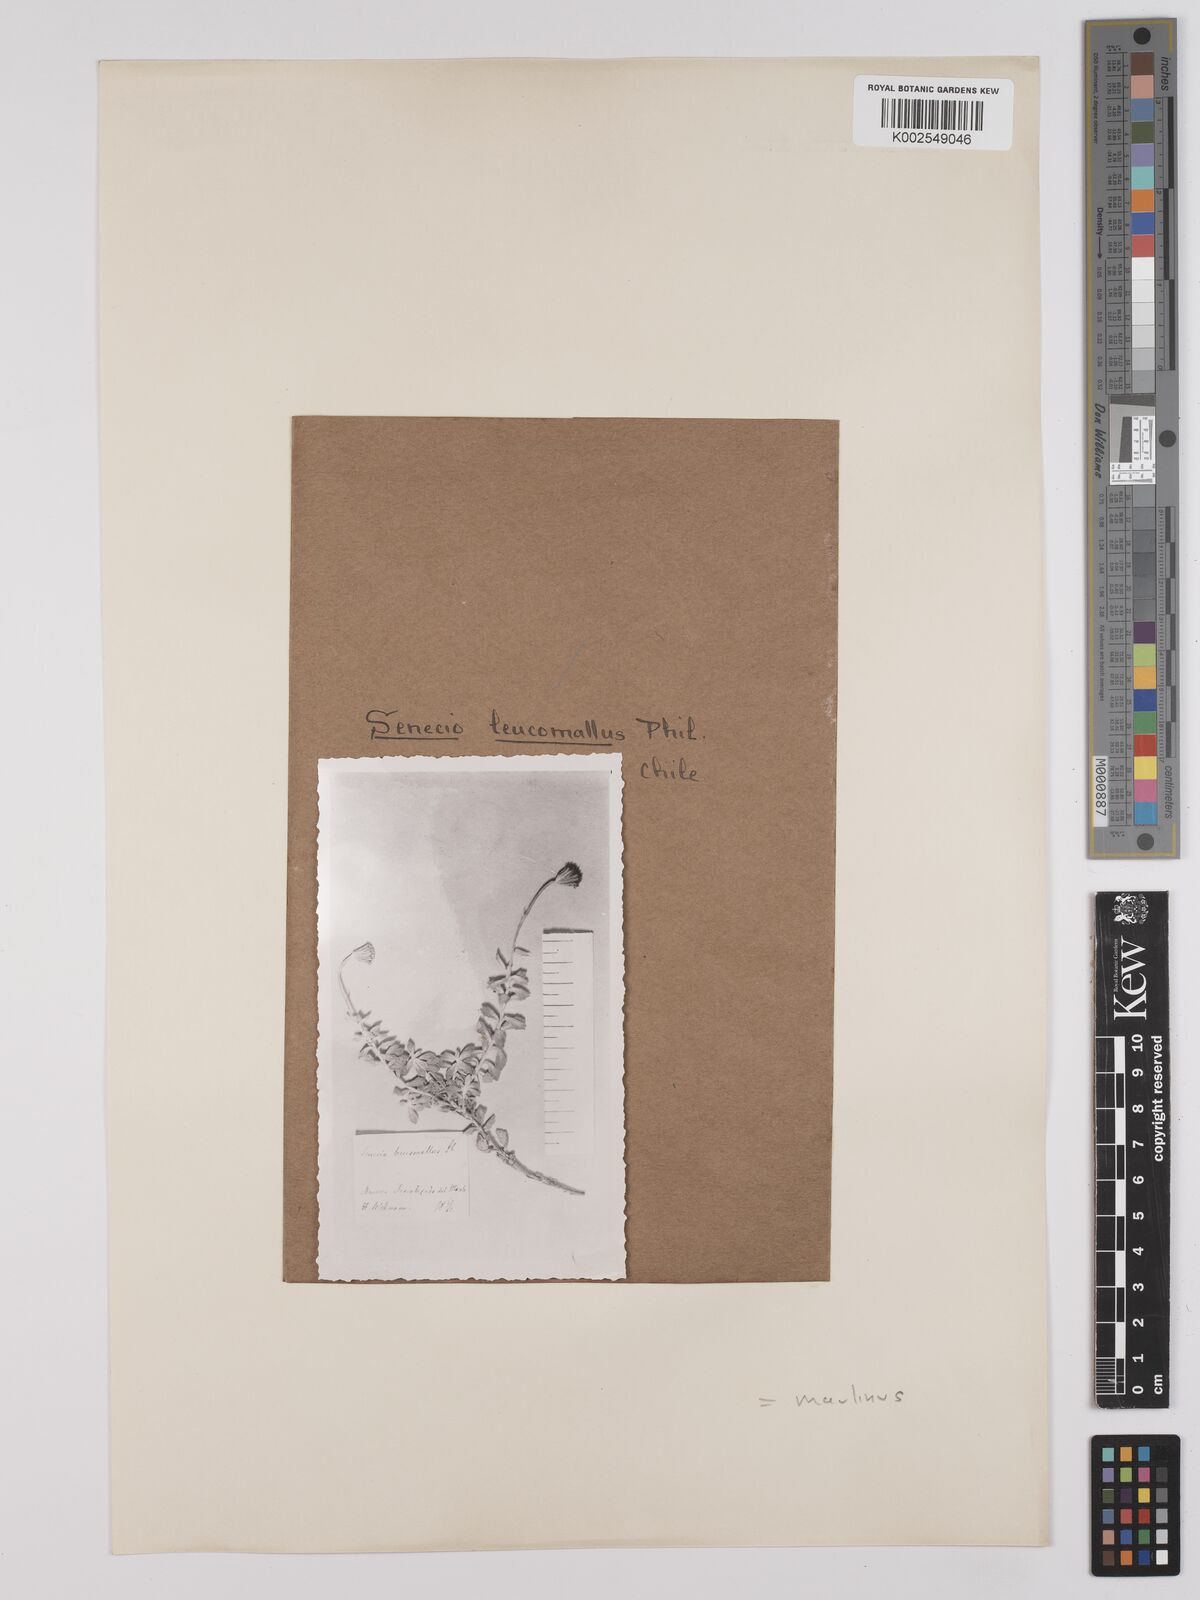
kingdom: Plantae
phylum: Tracheophyta
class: Magnoliopsida
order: Asterales
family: Asteraceae
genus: Senecio
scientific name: Senecio maulinus
